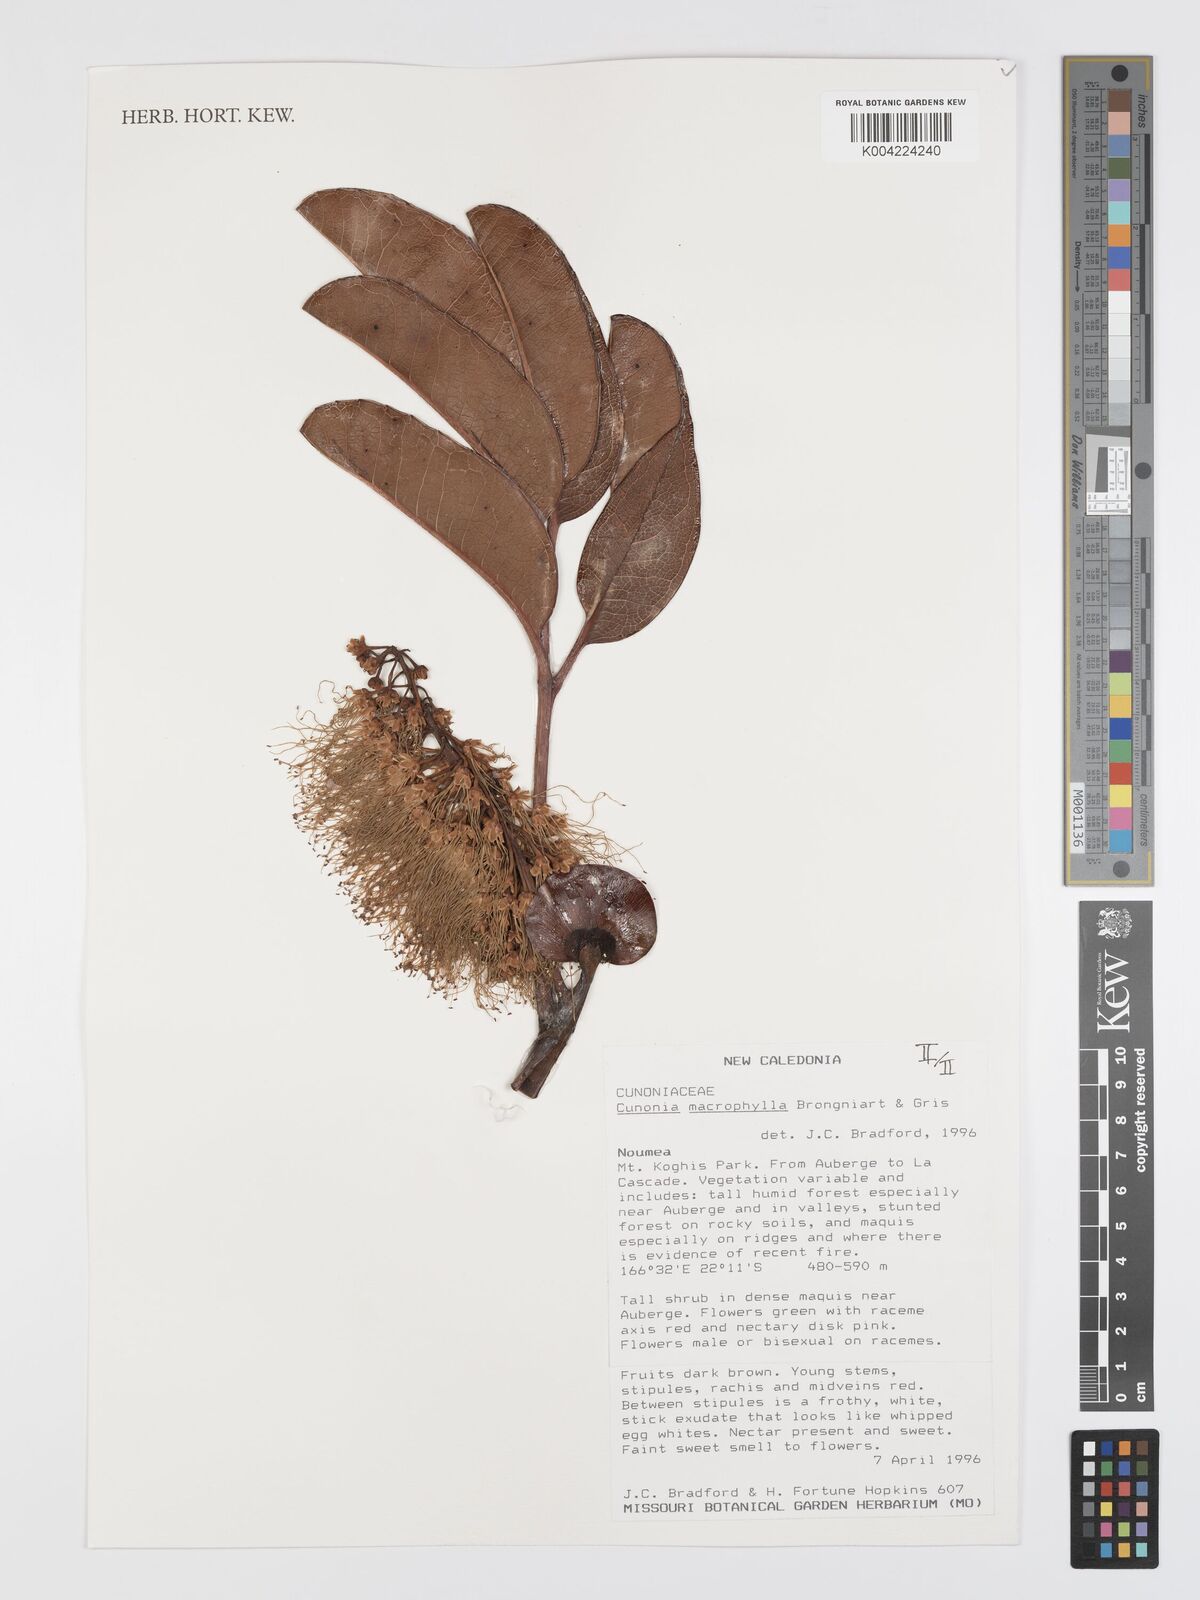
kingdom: Plantae
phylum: Tracheophyta
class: Magnoliopsida
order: Oxalidales
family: Cunoniaceae
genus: Cunonia
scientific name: Cunonia macrophylla
